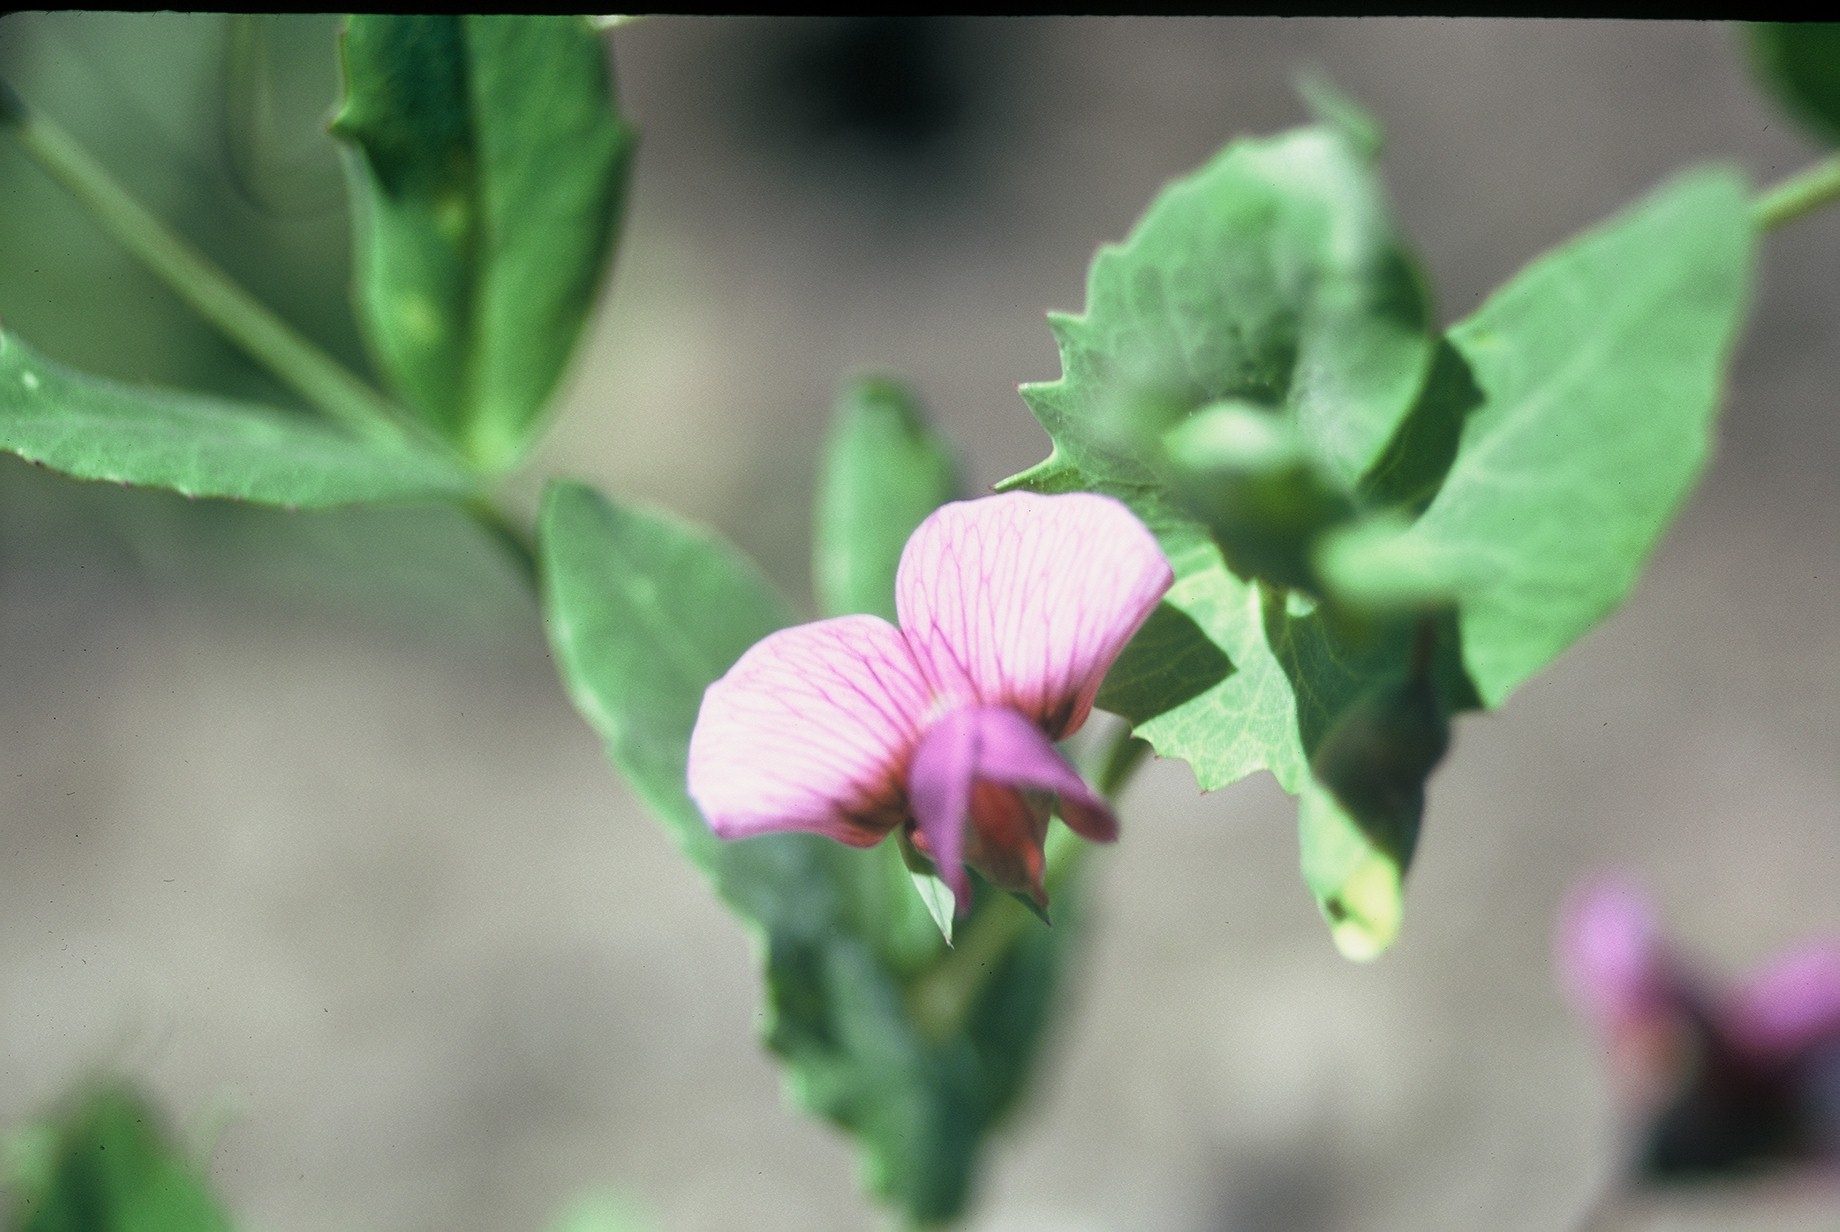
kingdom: Plantae
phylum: Tracheophyta
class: Magnoliopsida
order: Fabales
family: Fabaceae
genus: Lathyrus
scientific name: Lathyrus oleraceus
